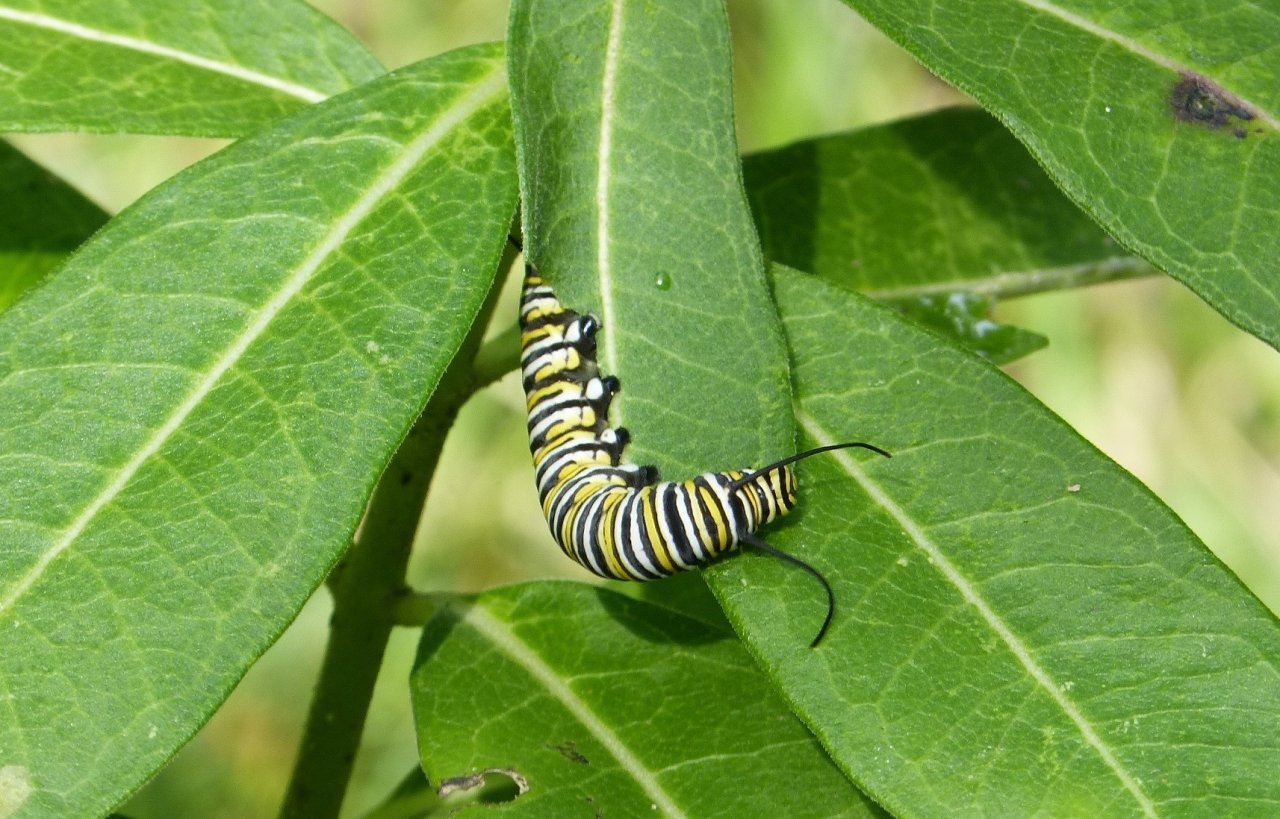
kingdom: Animalia
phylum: Arthropoda
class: Insecta
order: Lepidoptera
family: Nymphalidae
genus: Danaus
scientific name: Danaus plexippus
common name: Monarch
